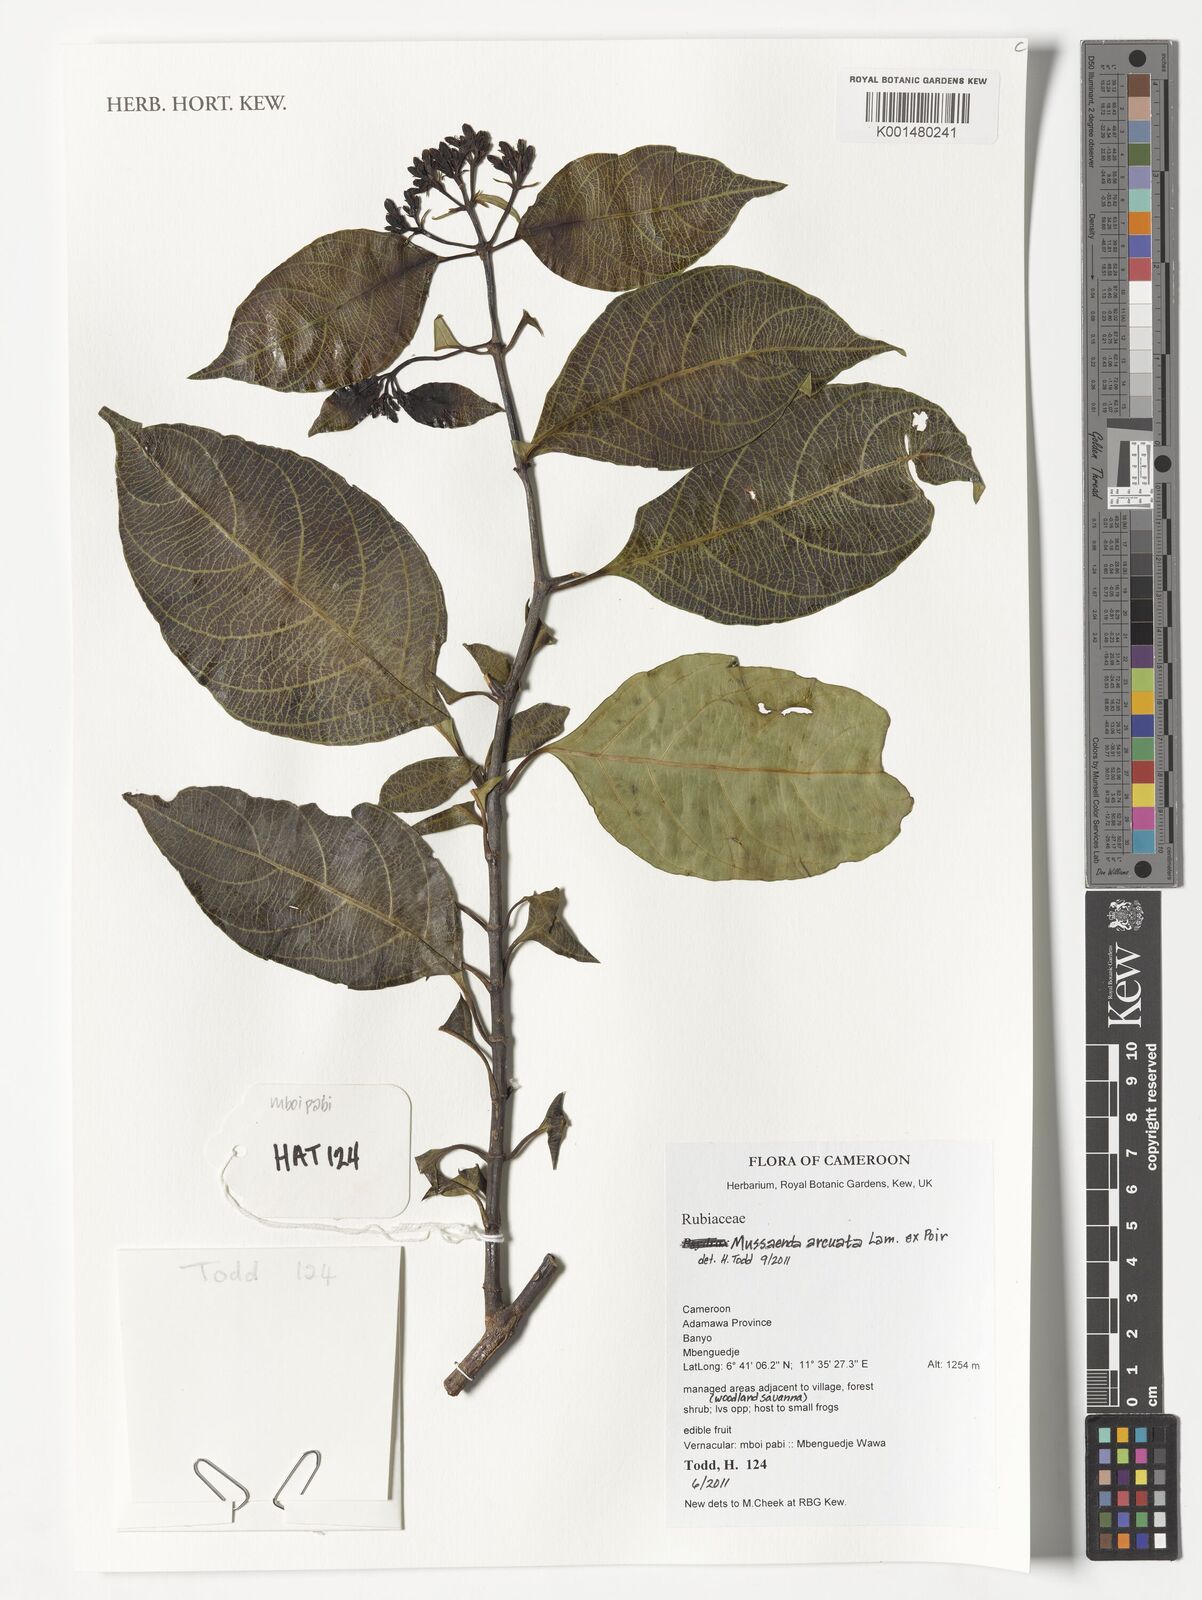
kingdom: Plantae
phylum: Tracheophyta
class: Magnoliopsida
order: Gentianales
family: Rubiaceae
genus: Mussaenda
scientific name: Mussaenda arcuata
